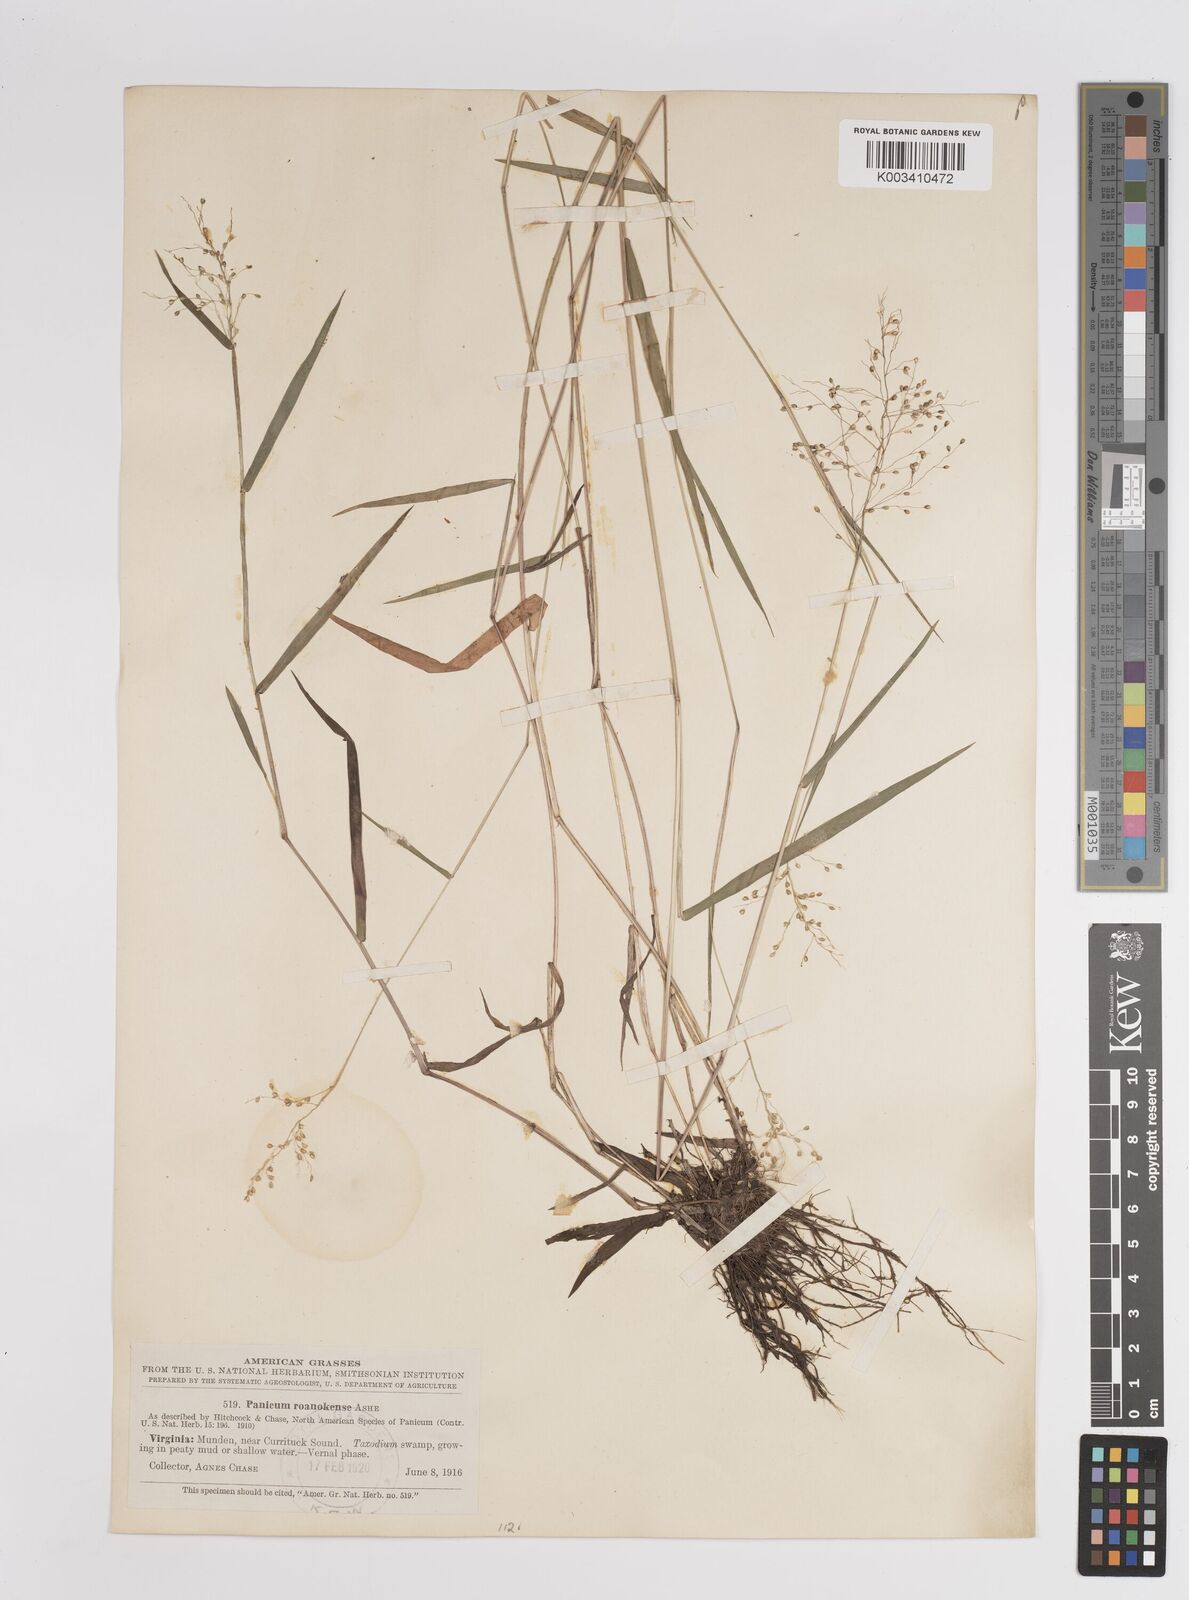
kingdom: Plantae
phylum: Tracheophyta
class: Liliopsida
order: Poales
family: Poaceae
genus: Dichanthelium
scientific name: Dichanthelium dichotomum
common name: Cypress panicgrass
